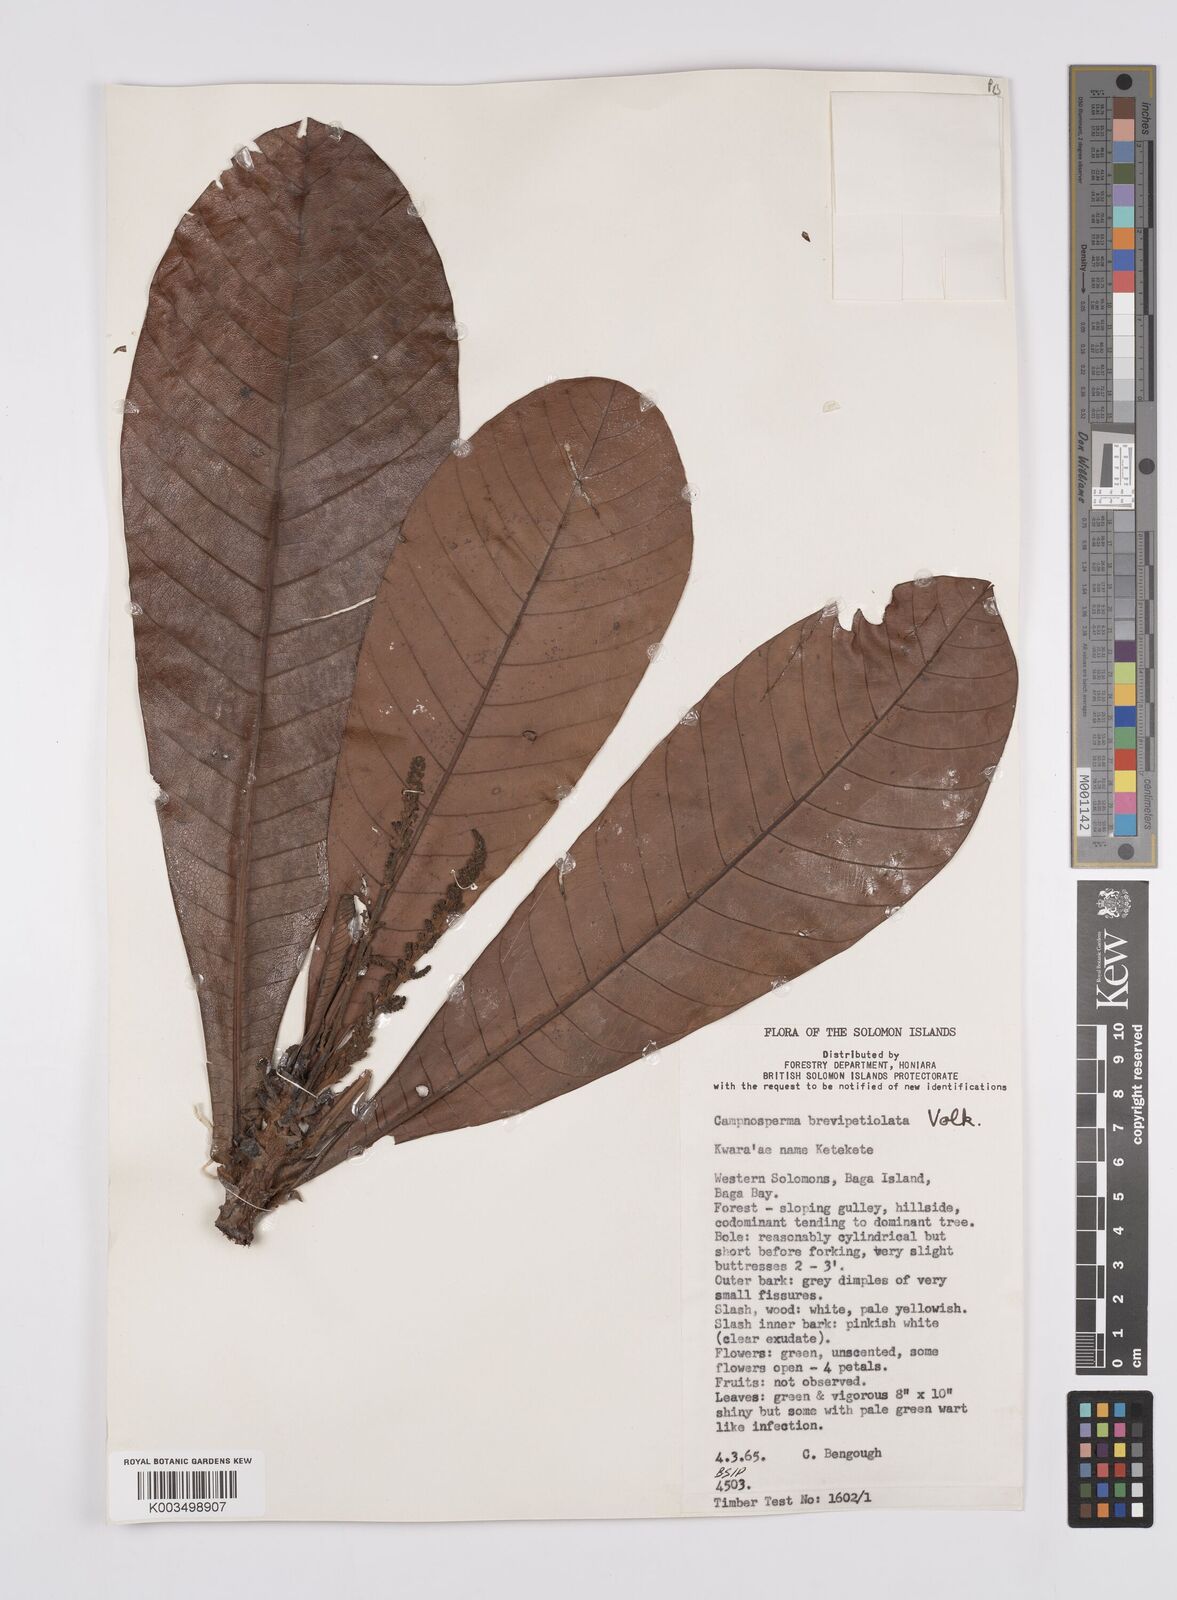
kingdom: Plantae
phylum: Tracheophyta
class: Magnoliopsida
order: Sapindales
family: Anacardiaceae
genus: Campnosperma
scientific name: Campnosperma brevipetiolatum
